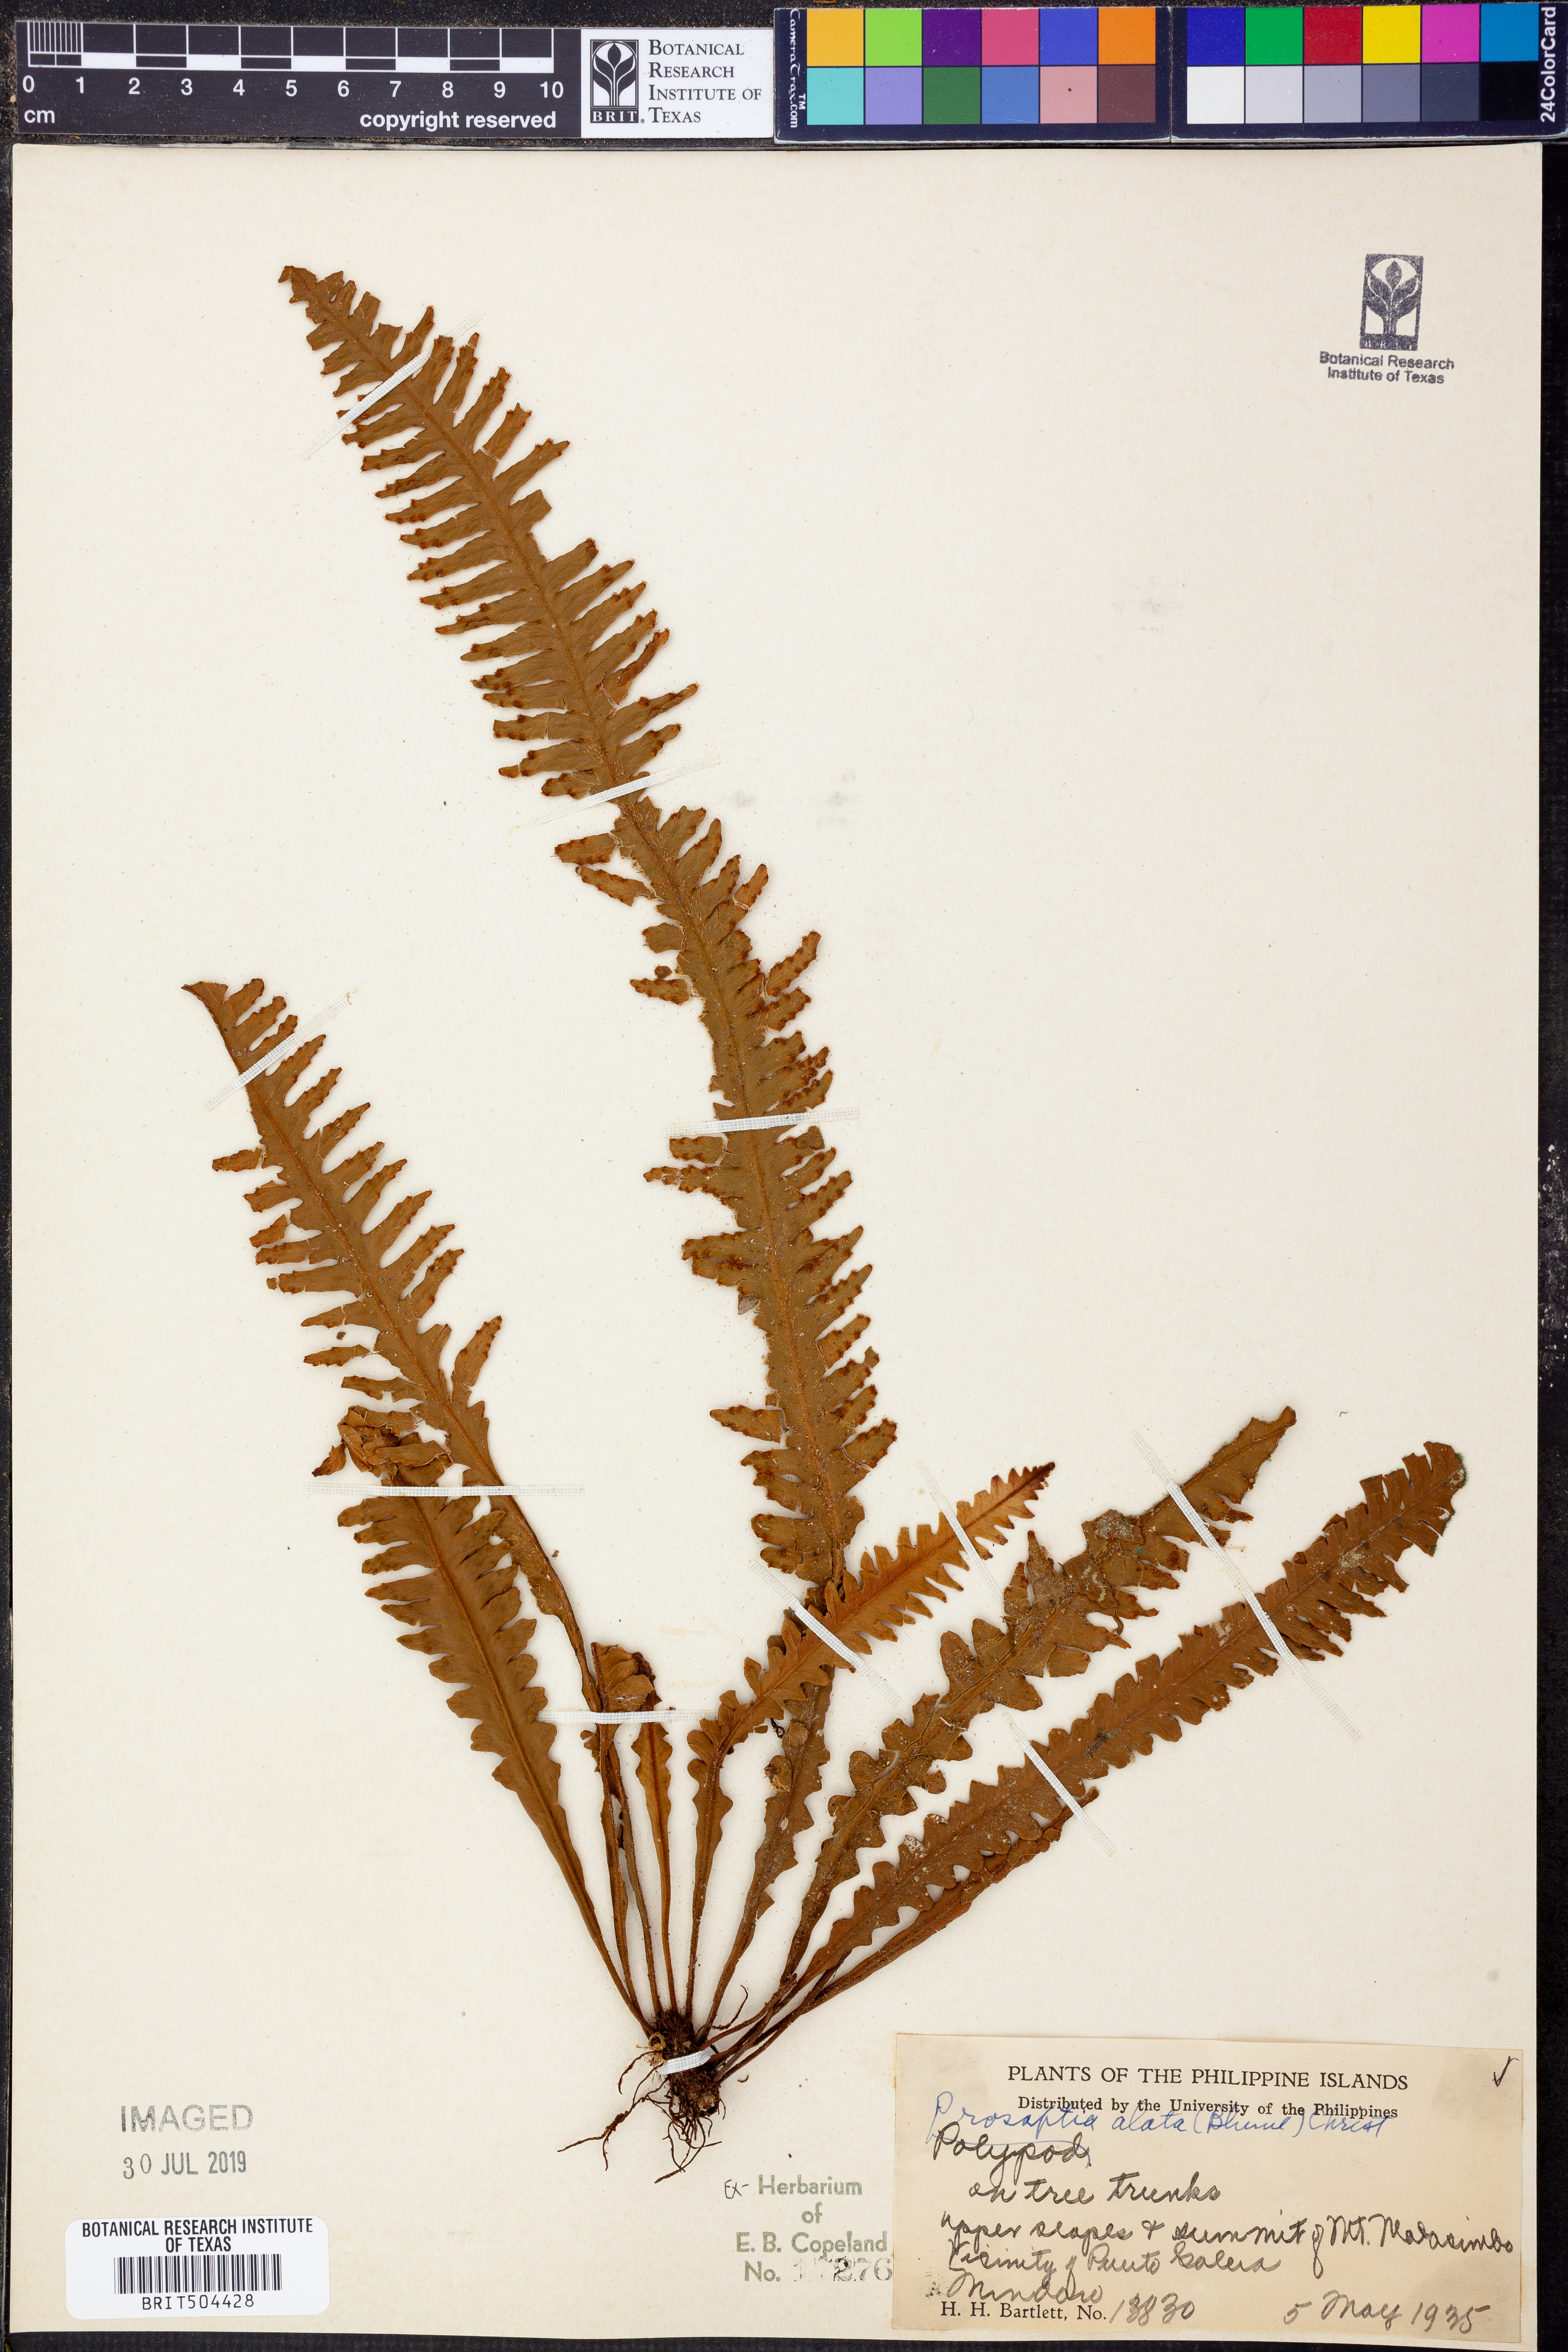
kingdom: Plantae
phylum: Tracheophyta
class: Polypodiopsida
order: Polypodiales
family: Polypodiaceae
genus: Prosaptia
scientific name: Prosaptia alata
